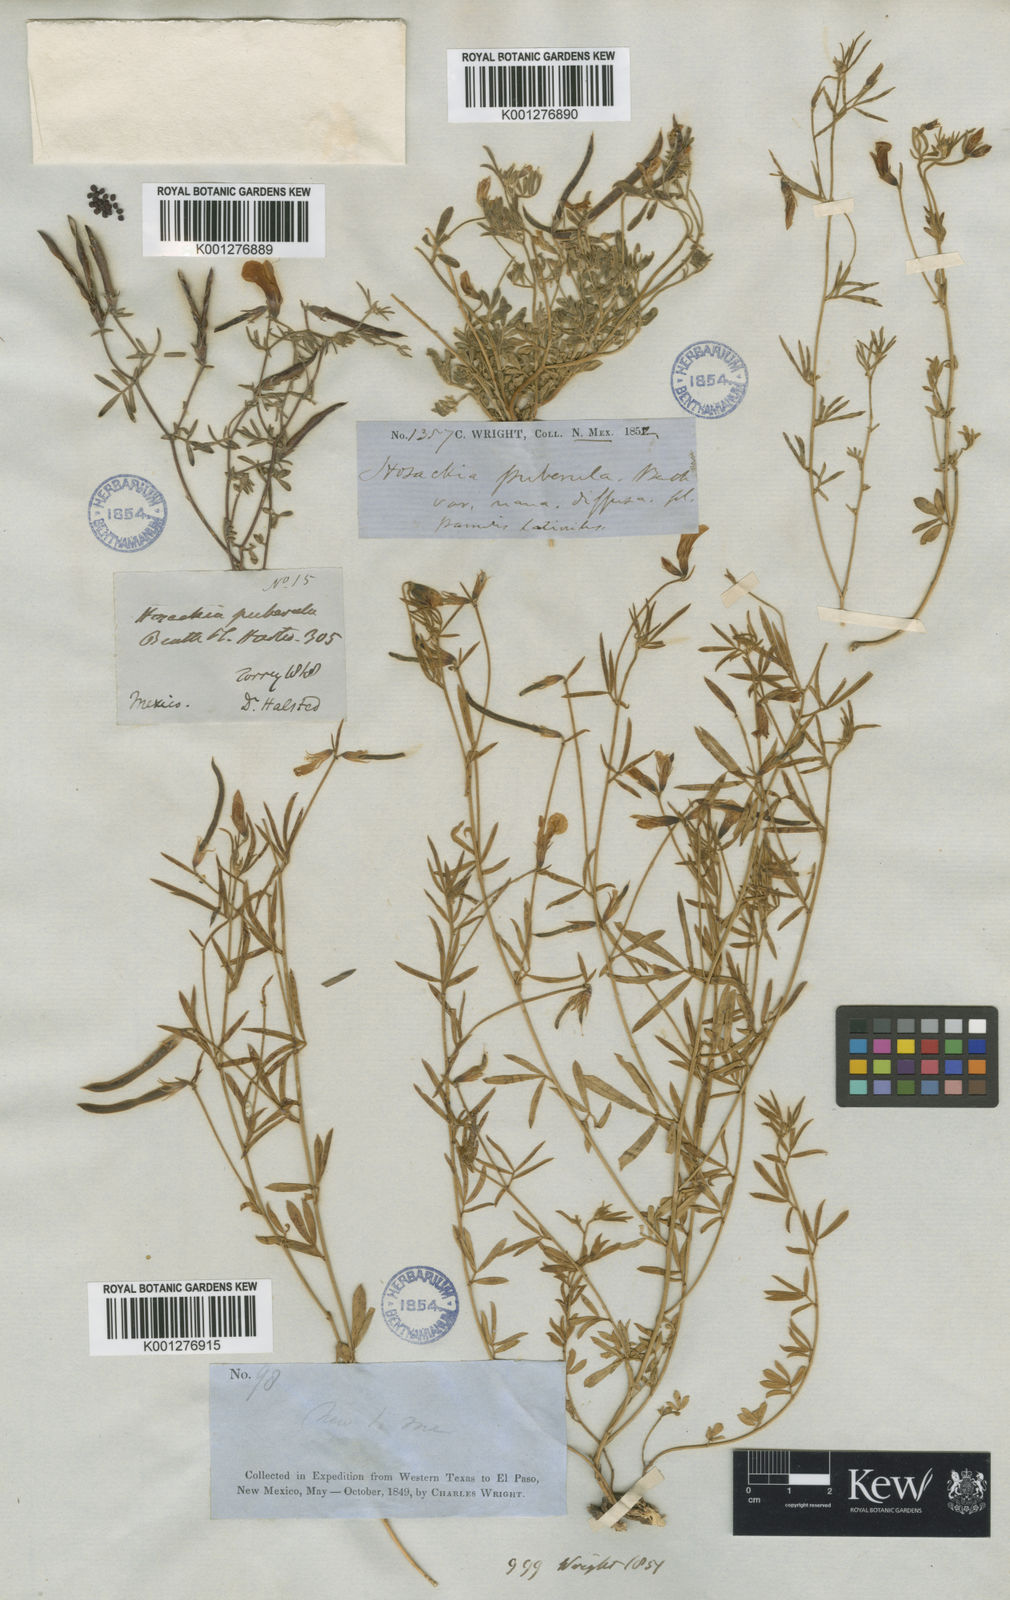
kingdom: Plantae
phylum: Tracheophyta
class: Magnoliopsida
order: Fabales
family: Fabaceae
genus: Acmispon
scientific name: Acmispon oroboides
